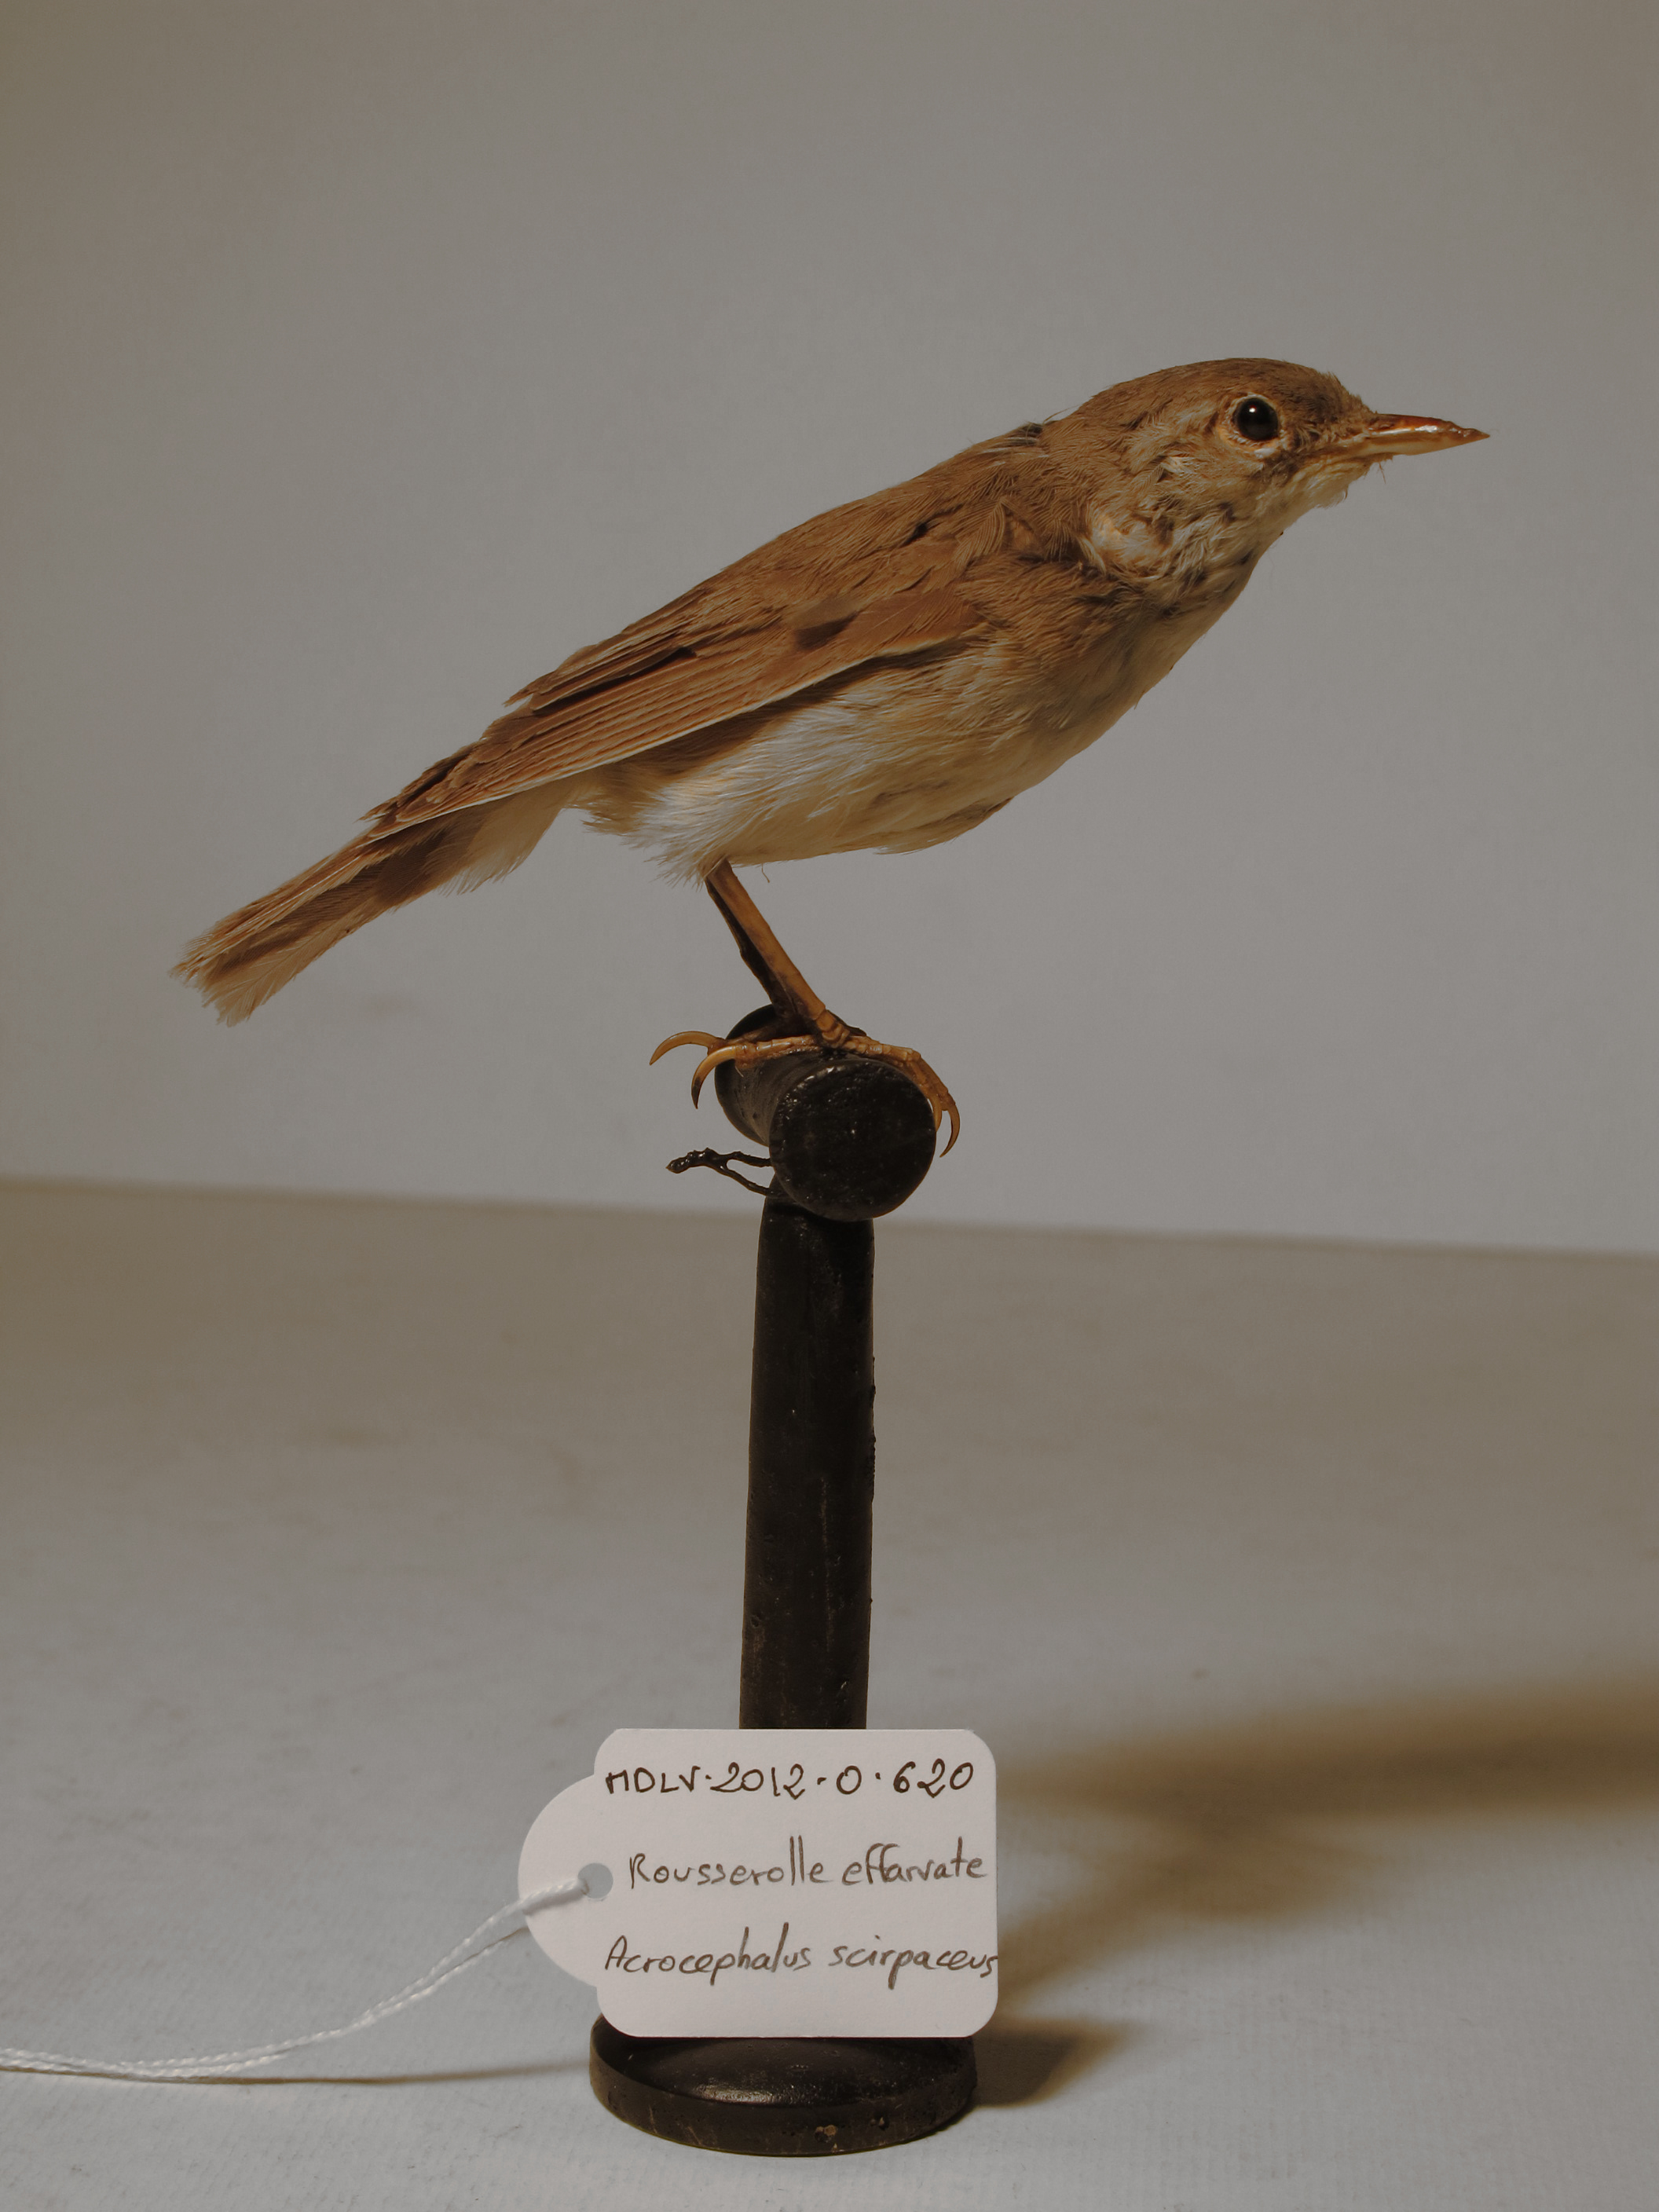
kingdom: Animalia
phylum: Chordata
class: Aves
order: Passeriformes
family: Acrocephalidae
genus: Acrocephalus
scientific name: Acrocephalus scirpaceus
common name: Eurasian Reed-warbler
